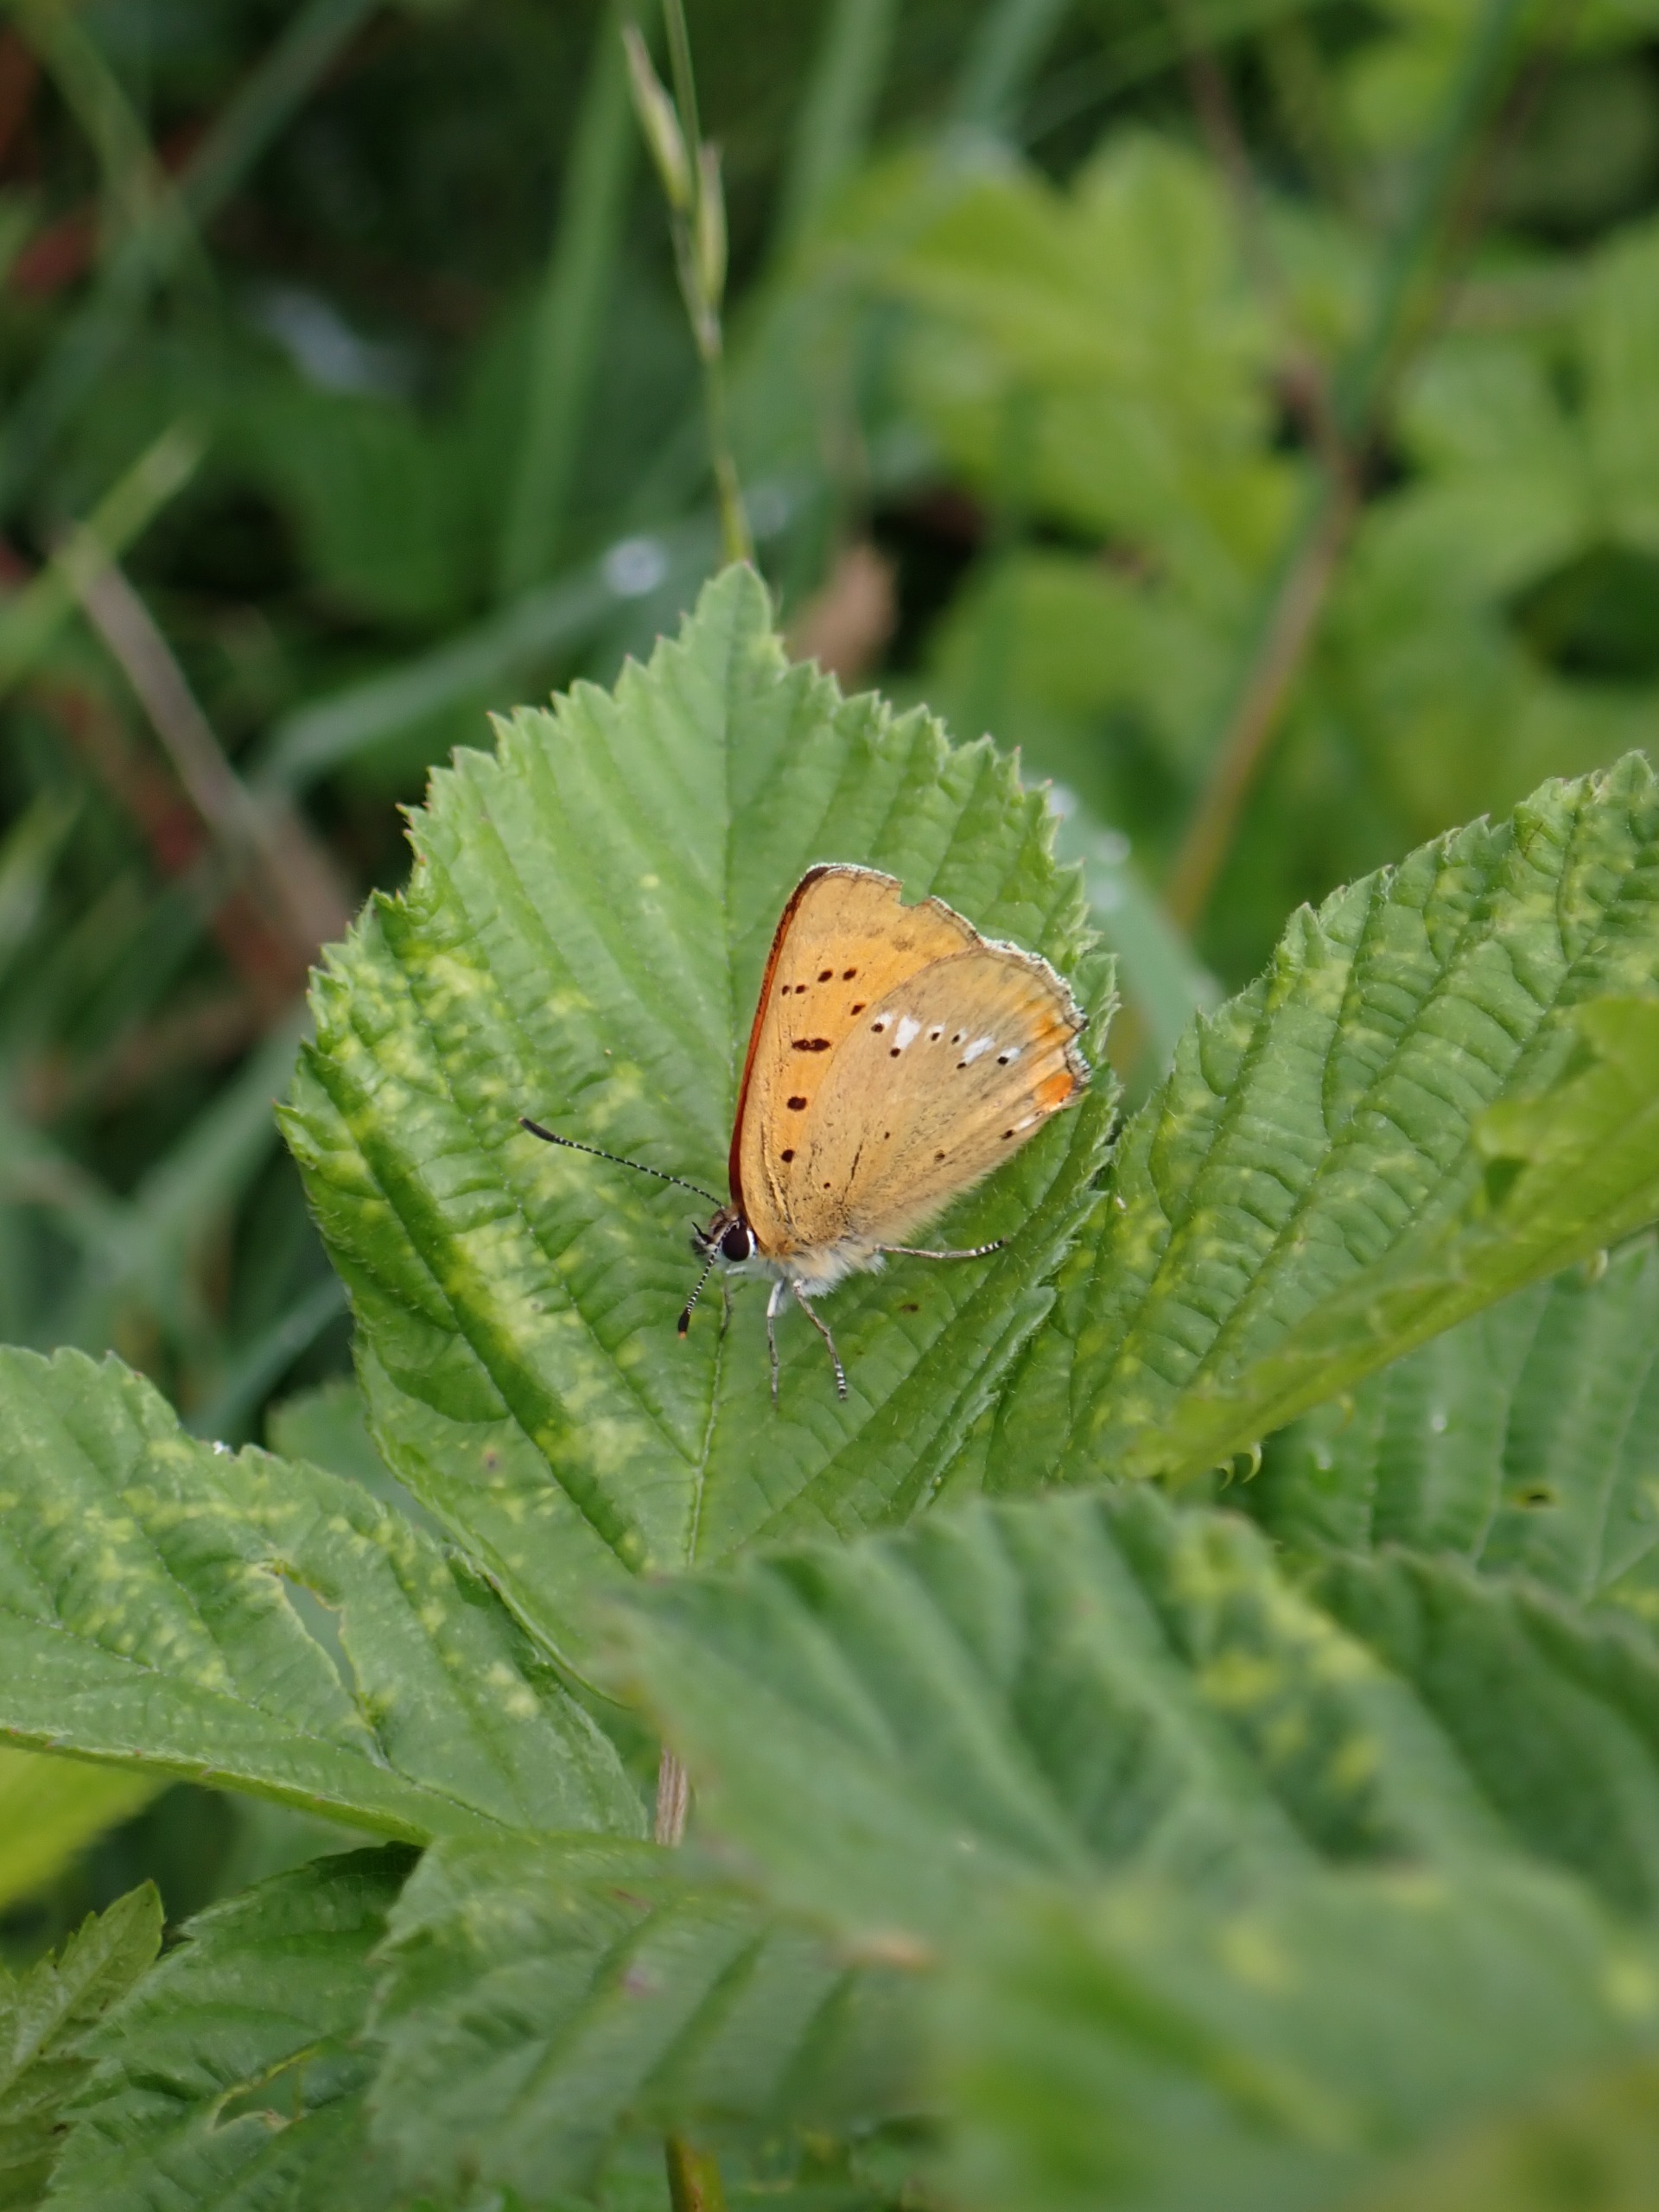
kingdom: Animalia
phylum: Arthropoda
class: Insecta
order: Lepidoptera
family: Lycaenidae
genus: Lycaena
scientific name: Lycaena virgaureae
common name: Dukatsommerfugl
